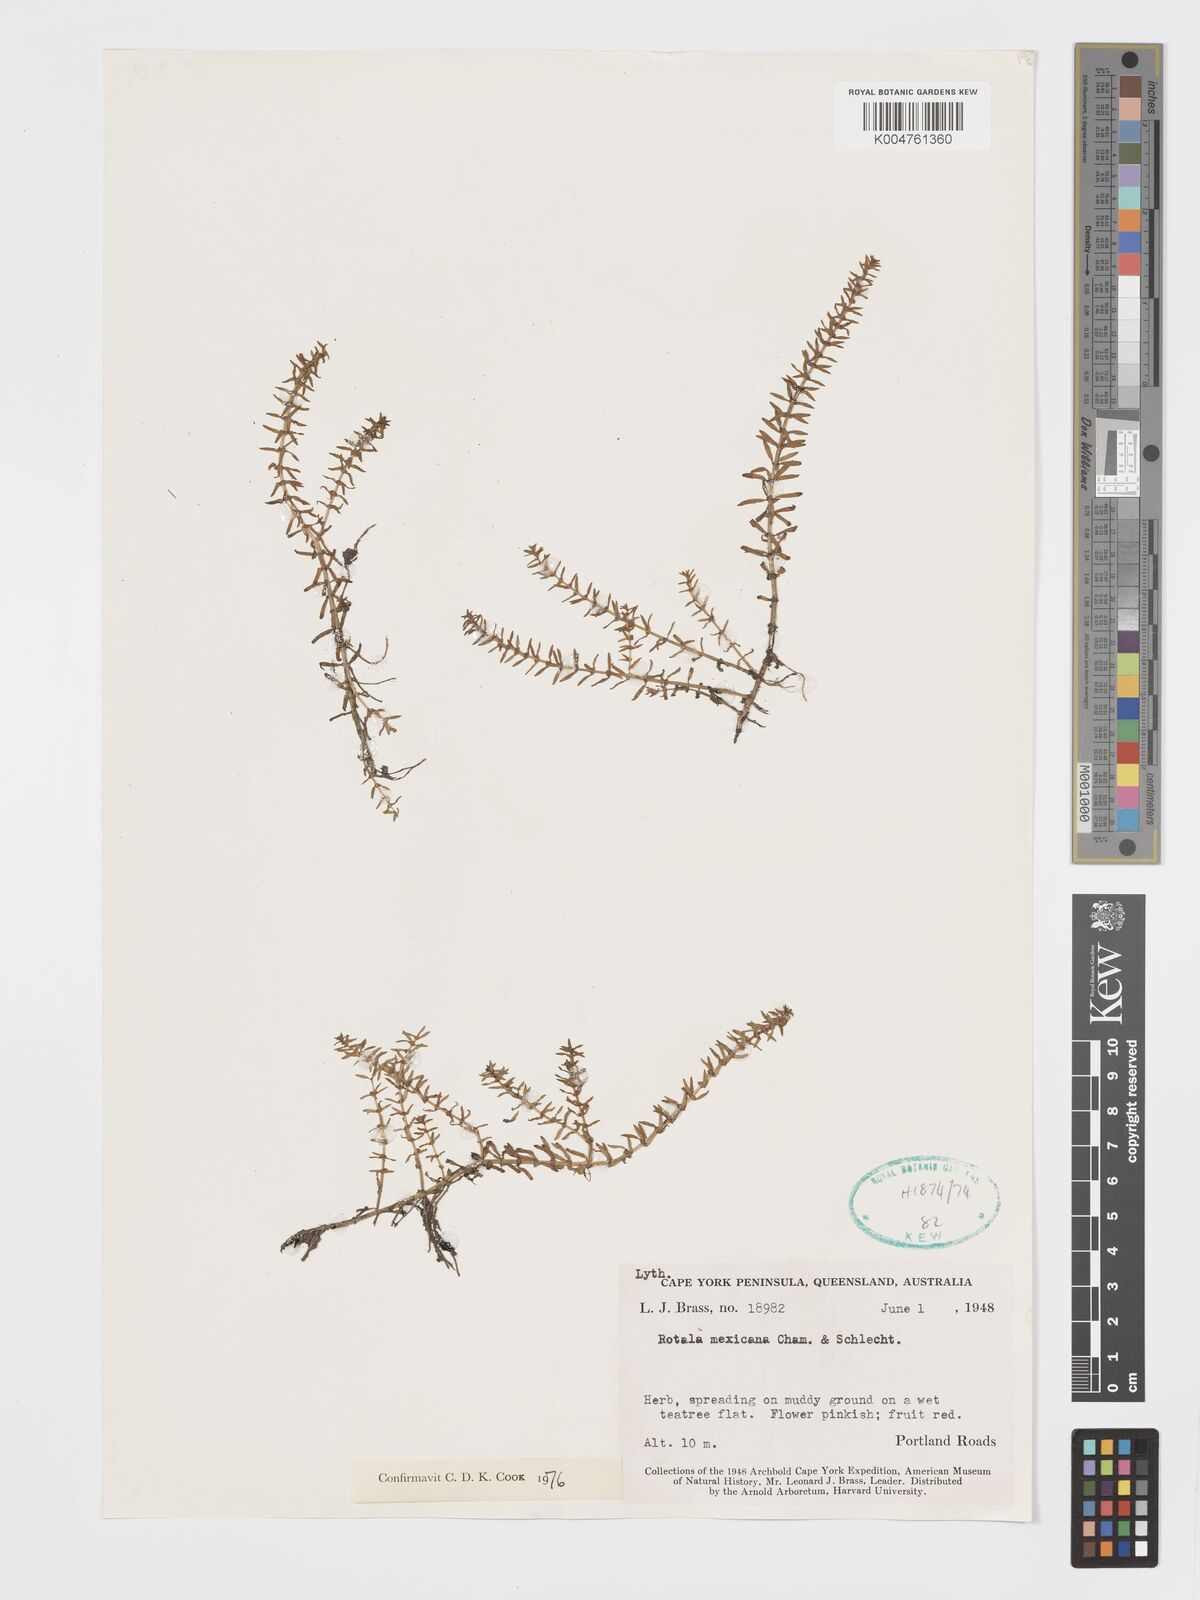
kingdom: Plantae
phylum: Tracheophyta
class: Magnoliopsida
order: Myrtales
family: Lythraceae
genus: Rotala
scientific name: Rotala mexicana
